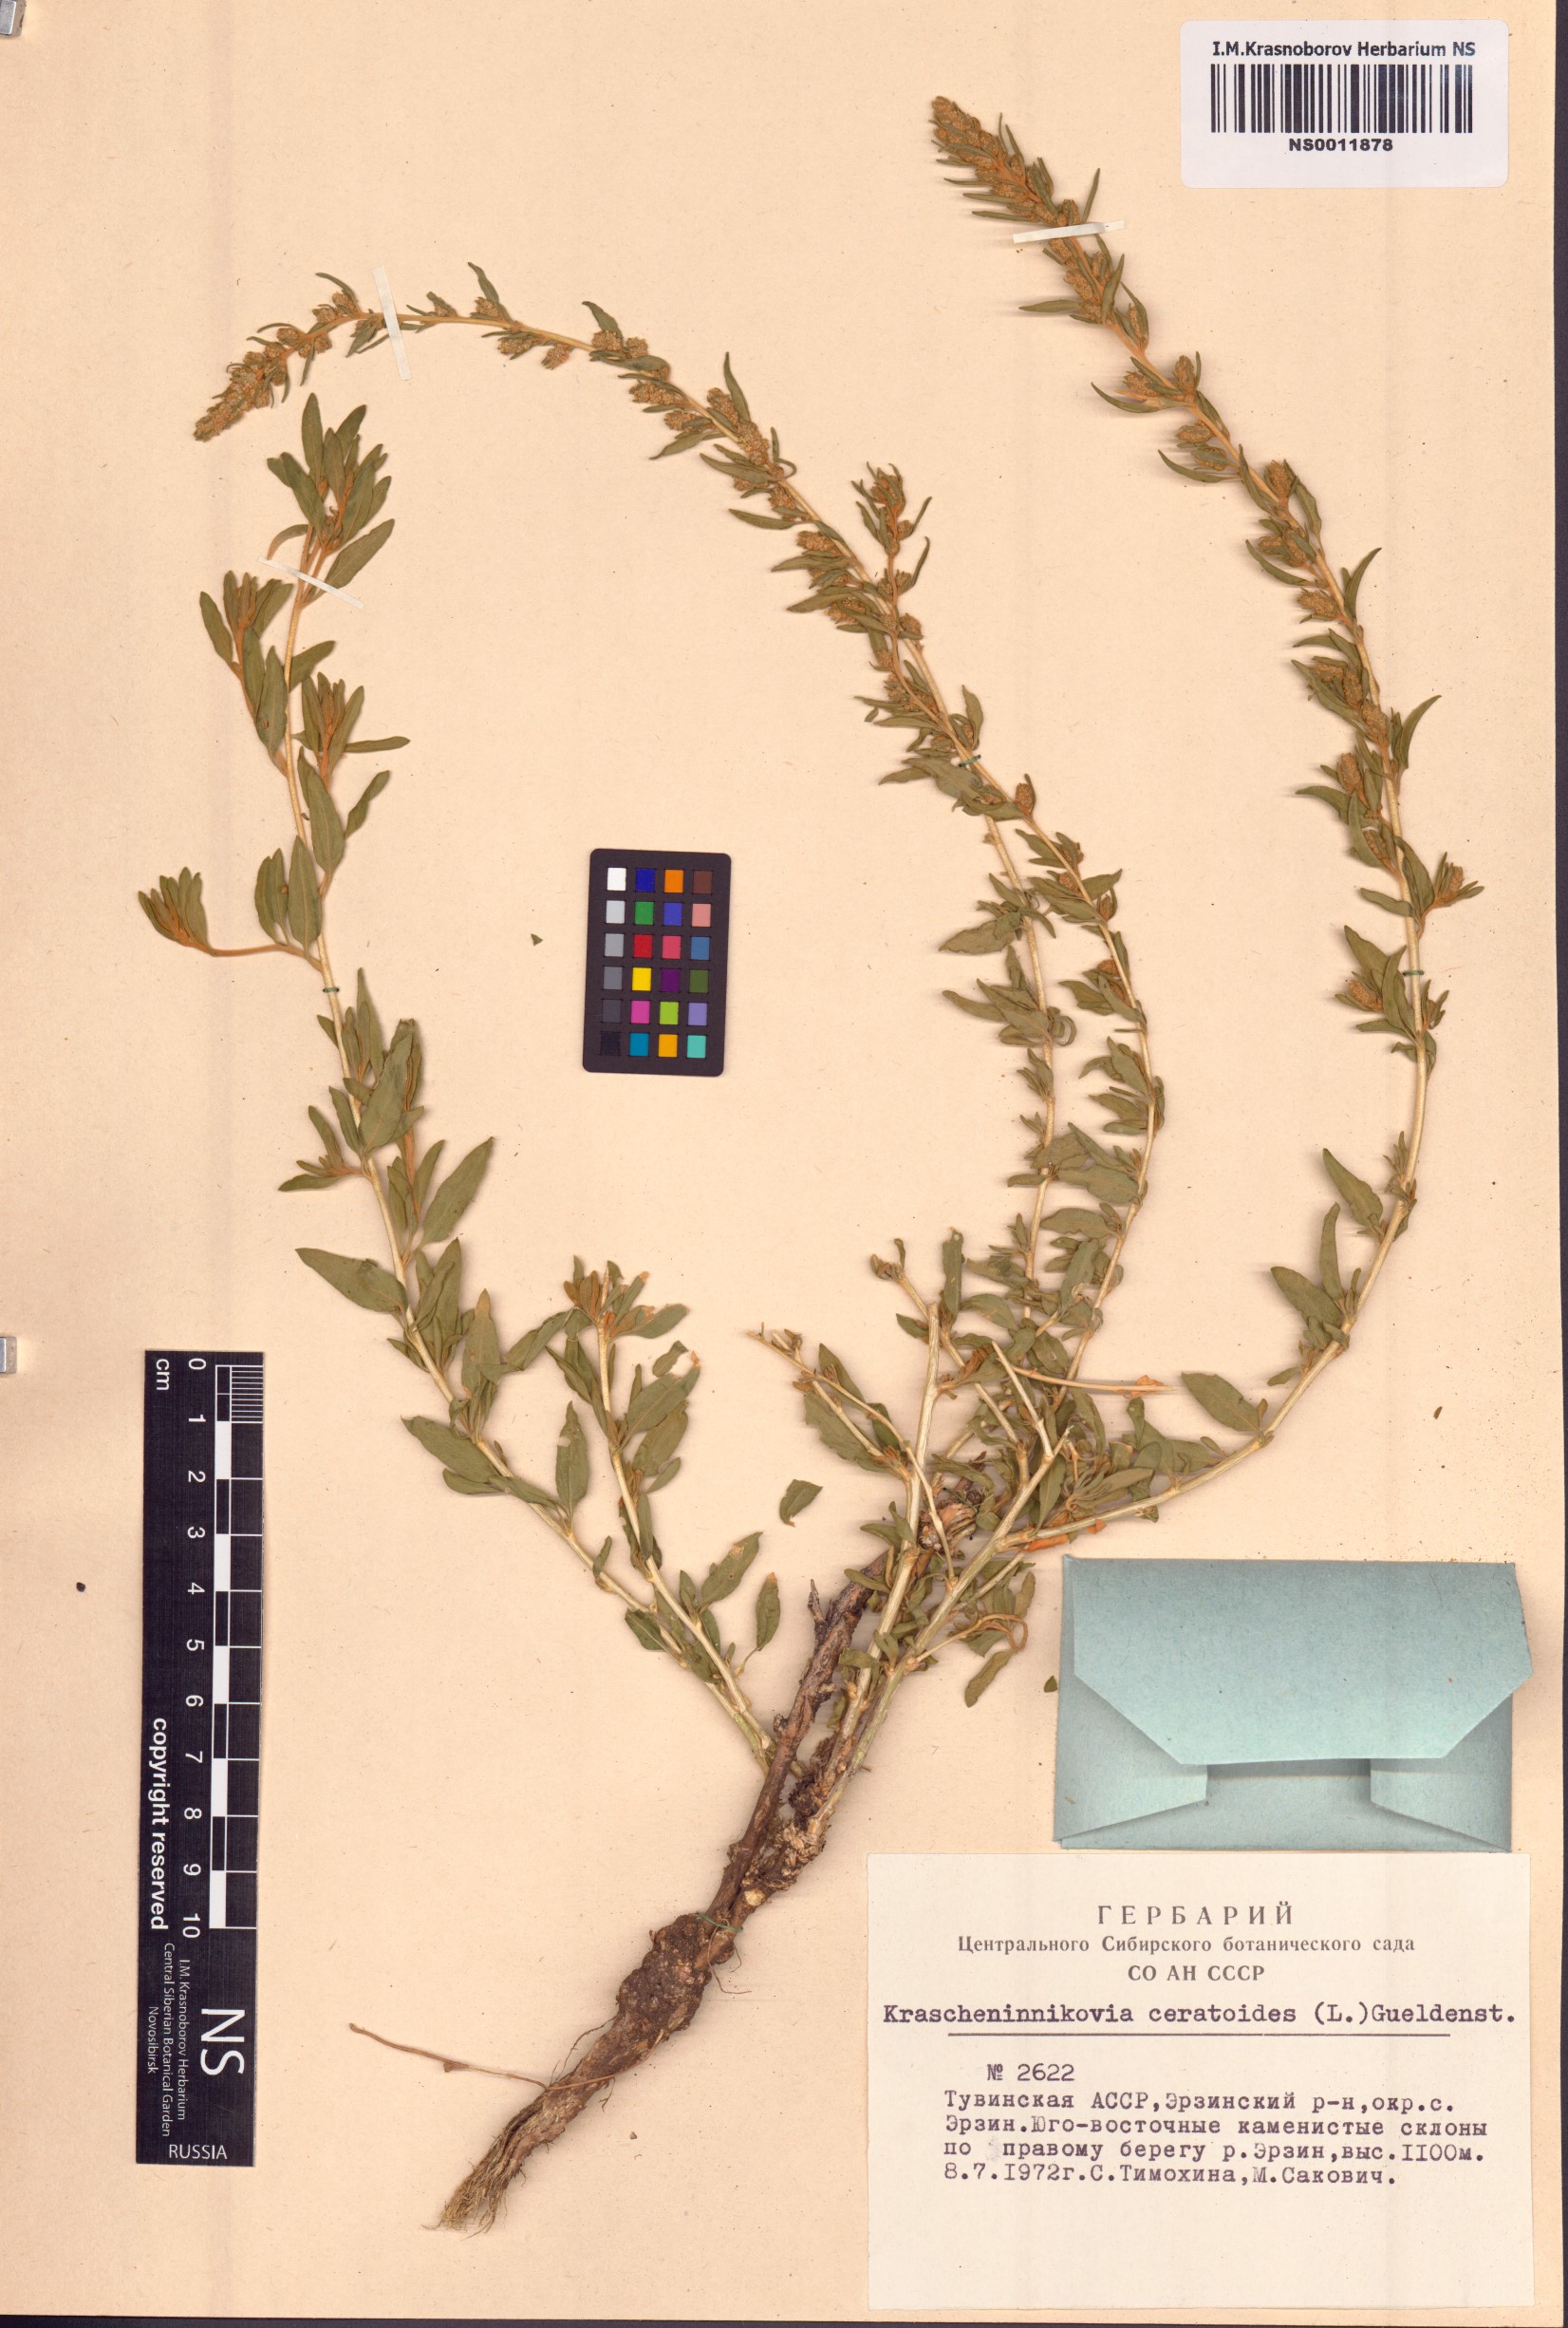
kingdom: Plantae
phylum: Tracheophyta
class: Magnoliopsida
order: Caryophyllales
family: Amaranthaceae
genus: Krascheninnikovia
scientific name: Krascheninnikovia ceratoides
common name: Pamirian winterfat
